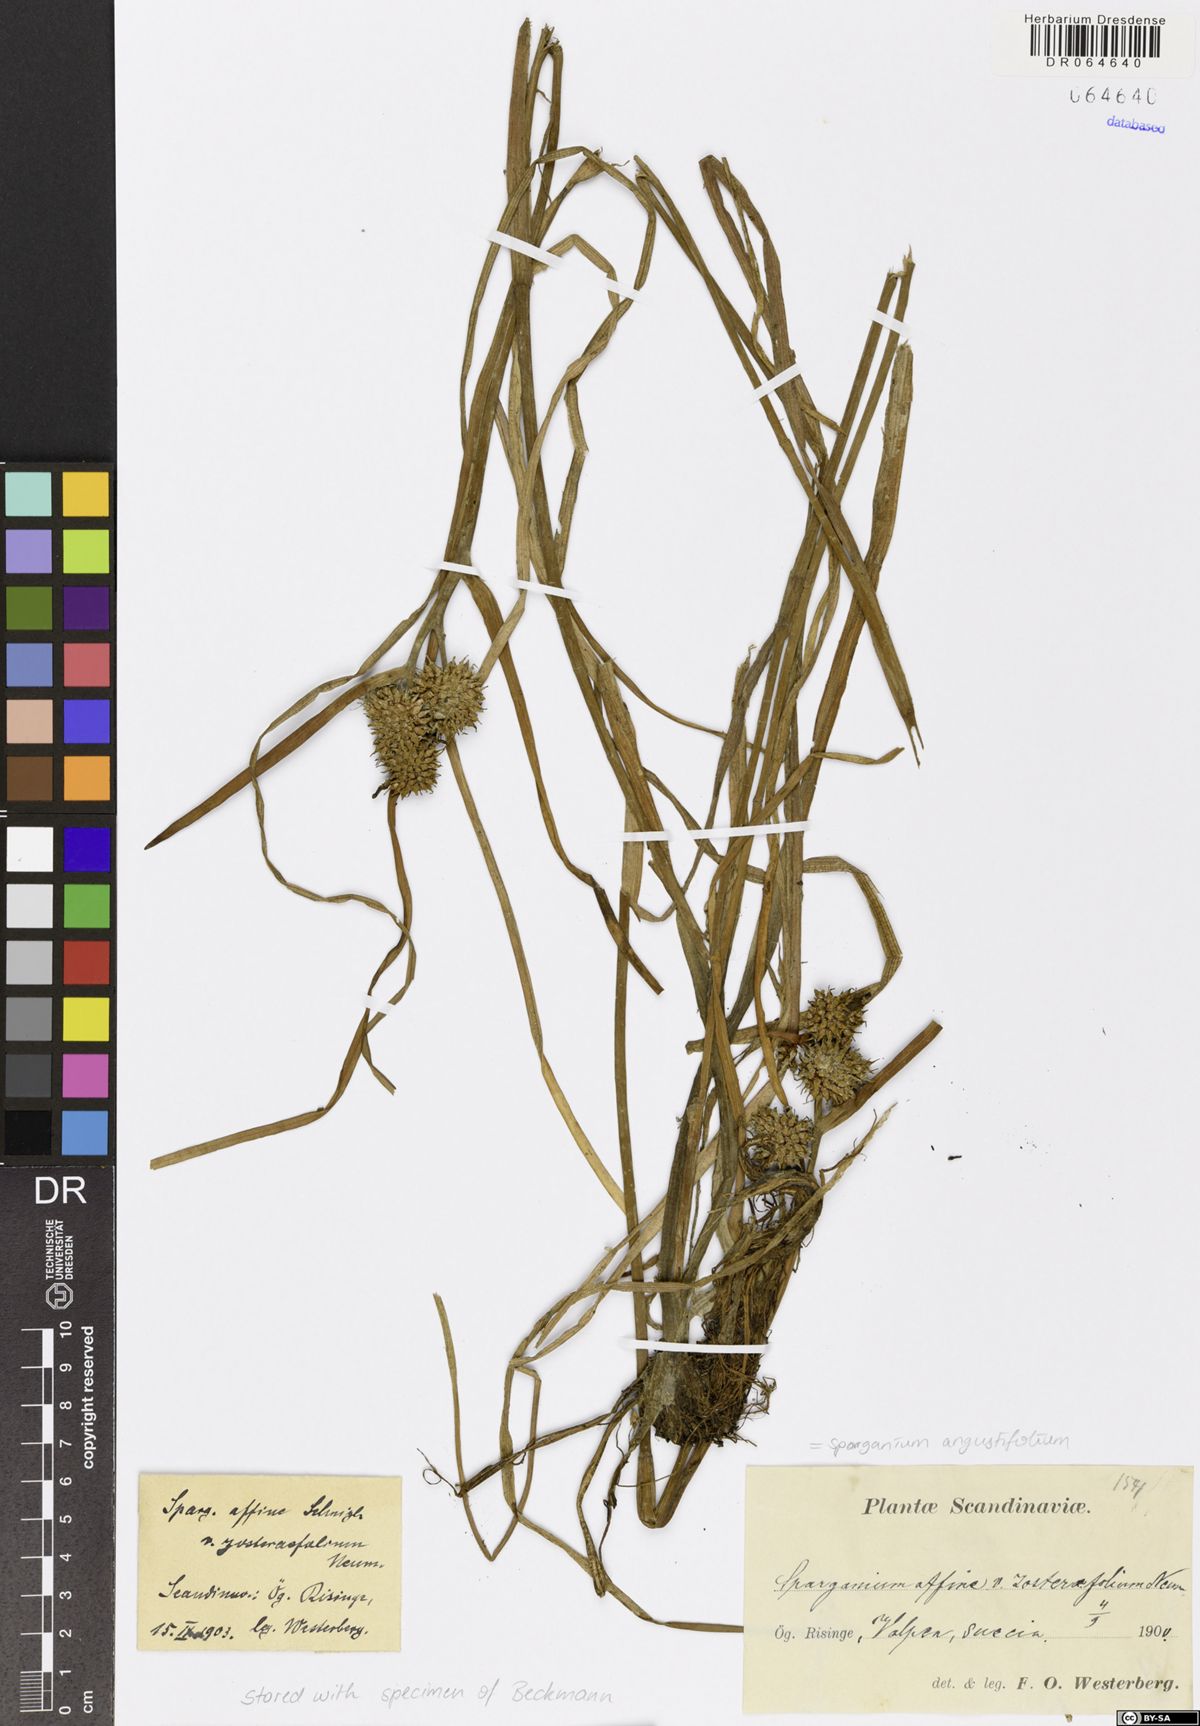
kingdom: Plantae
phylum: Tracheophyta
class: Liliopsida
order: Poales
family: Typhaceae
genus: Sparganium
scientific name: Sparganium angustifolium
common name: Floating bur-reed
